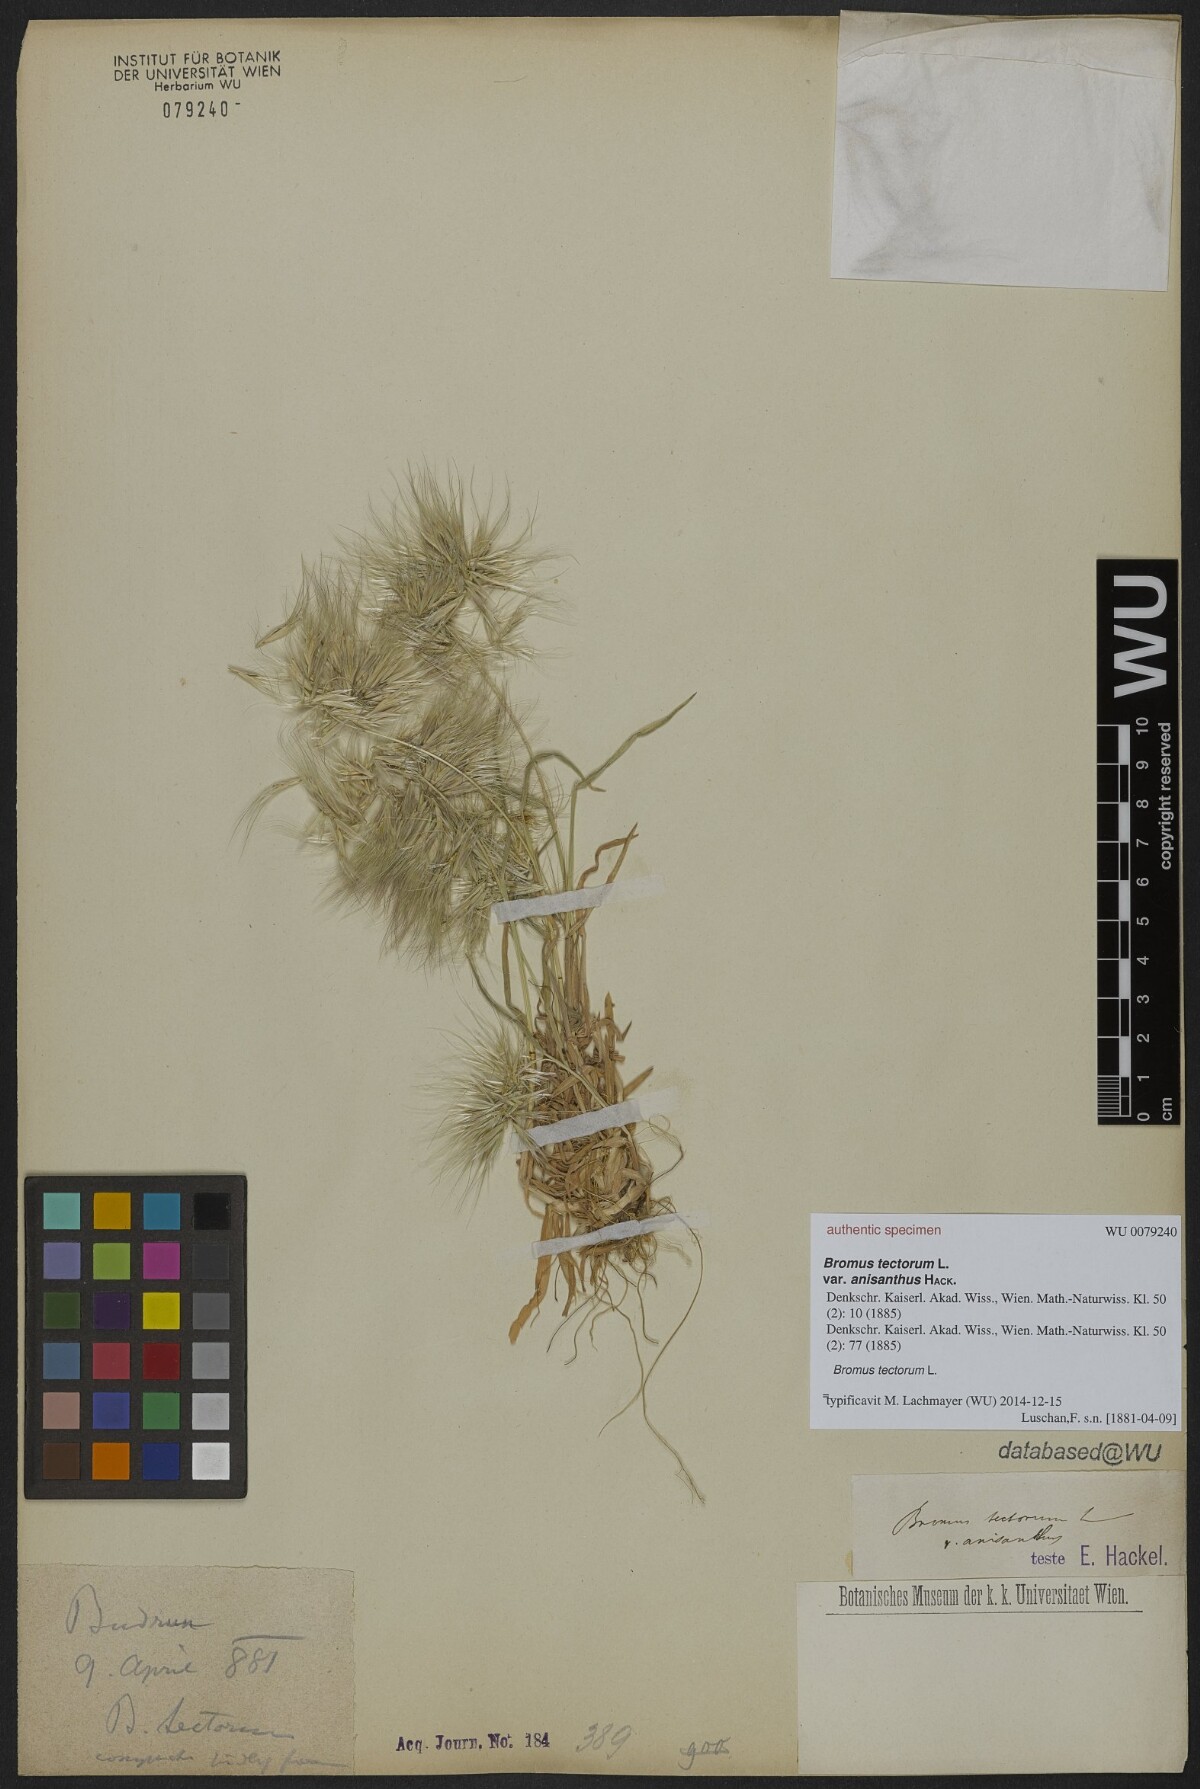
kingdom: Plantae
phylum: Tracheophyta
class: Liliopsida
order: Poales
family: Poaceae
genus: Bromus
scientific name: Bromus tectorum
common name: Cheatgrass
